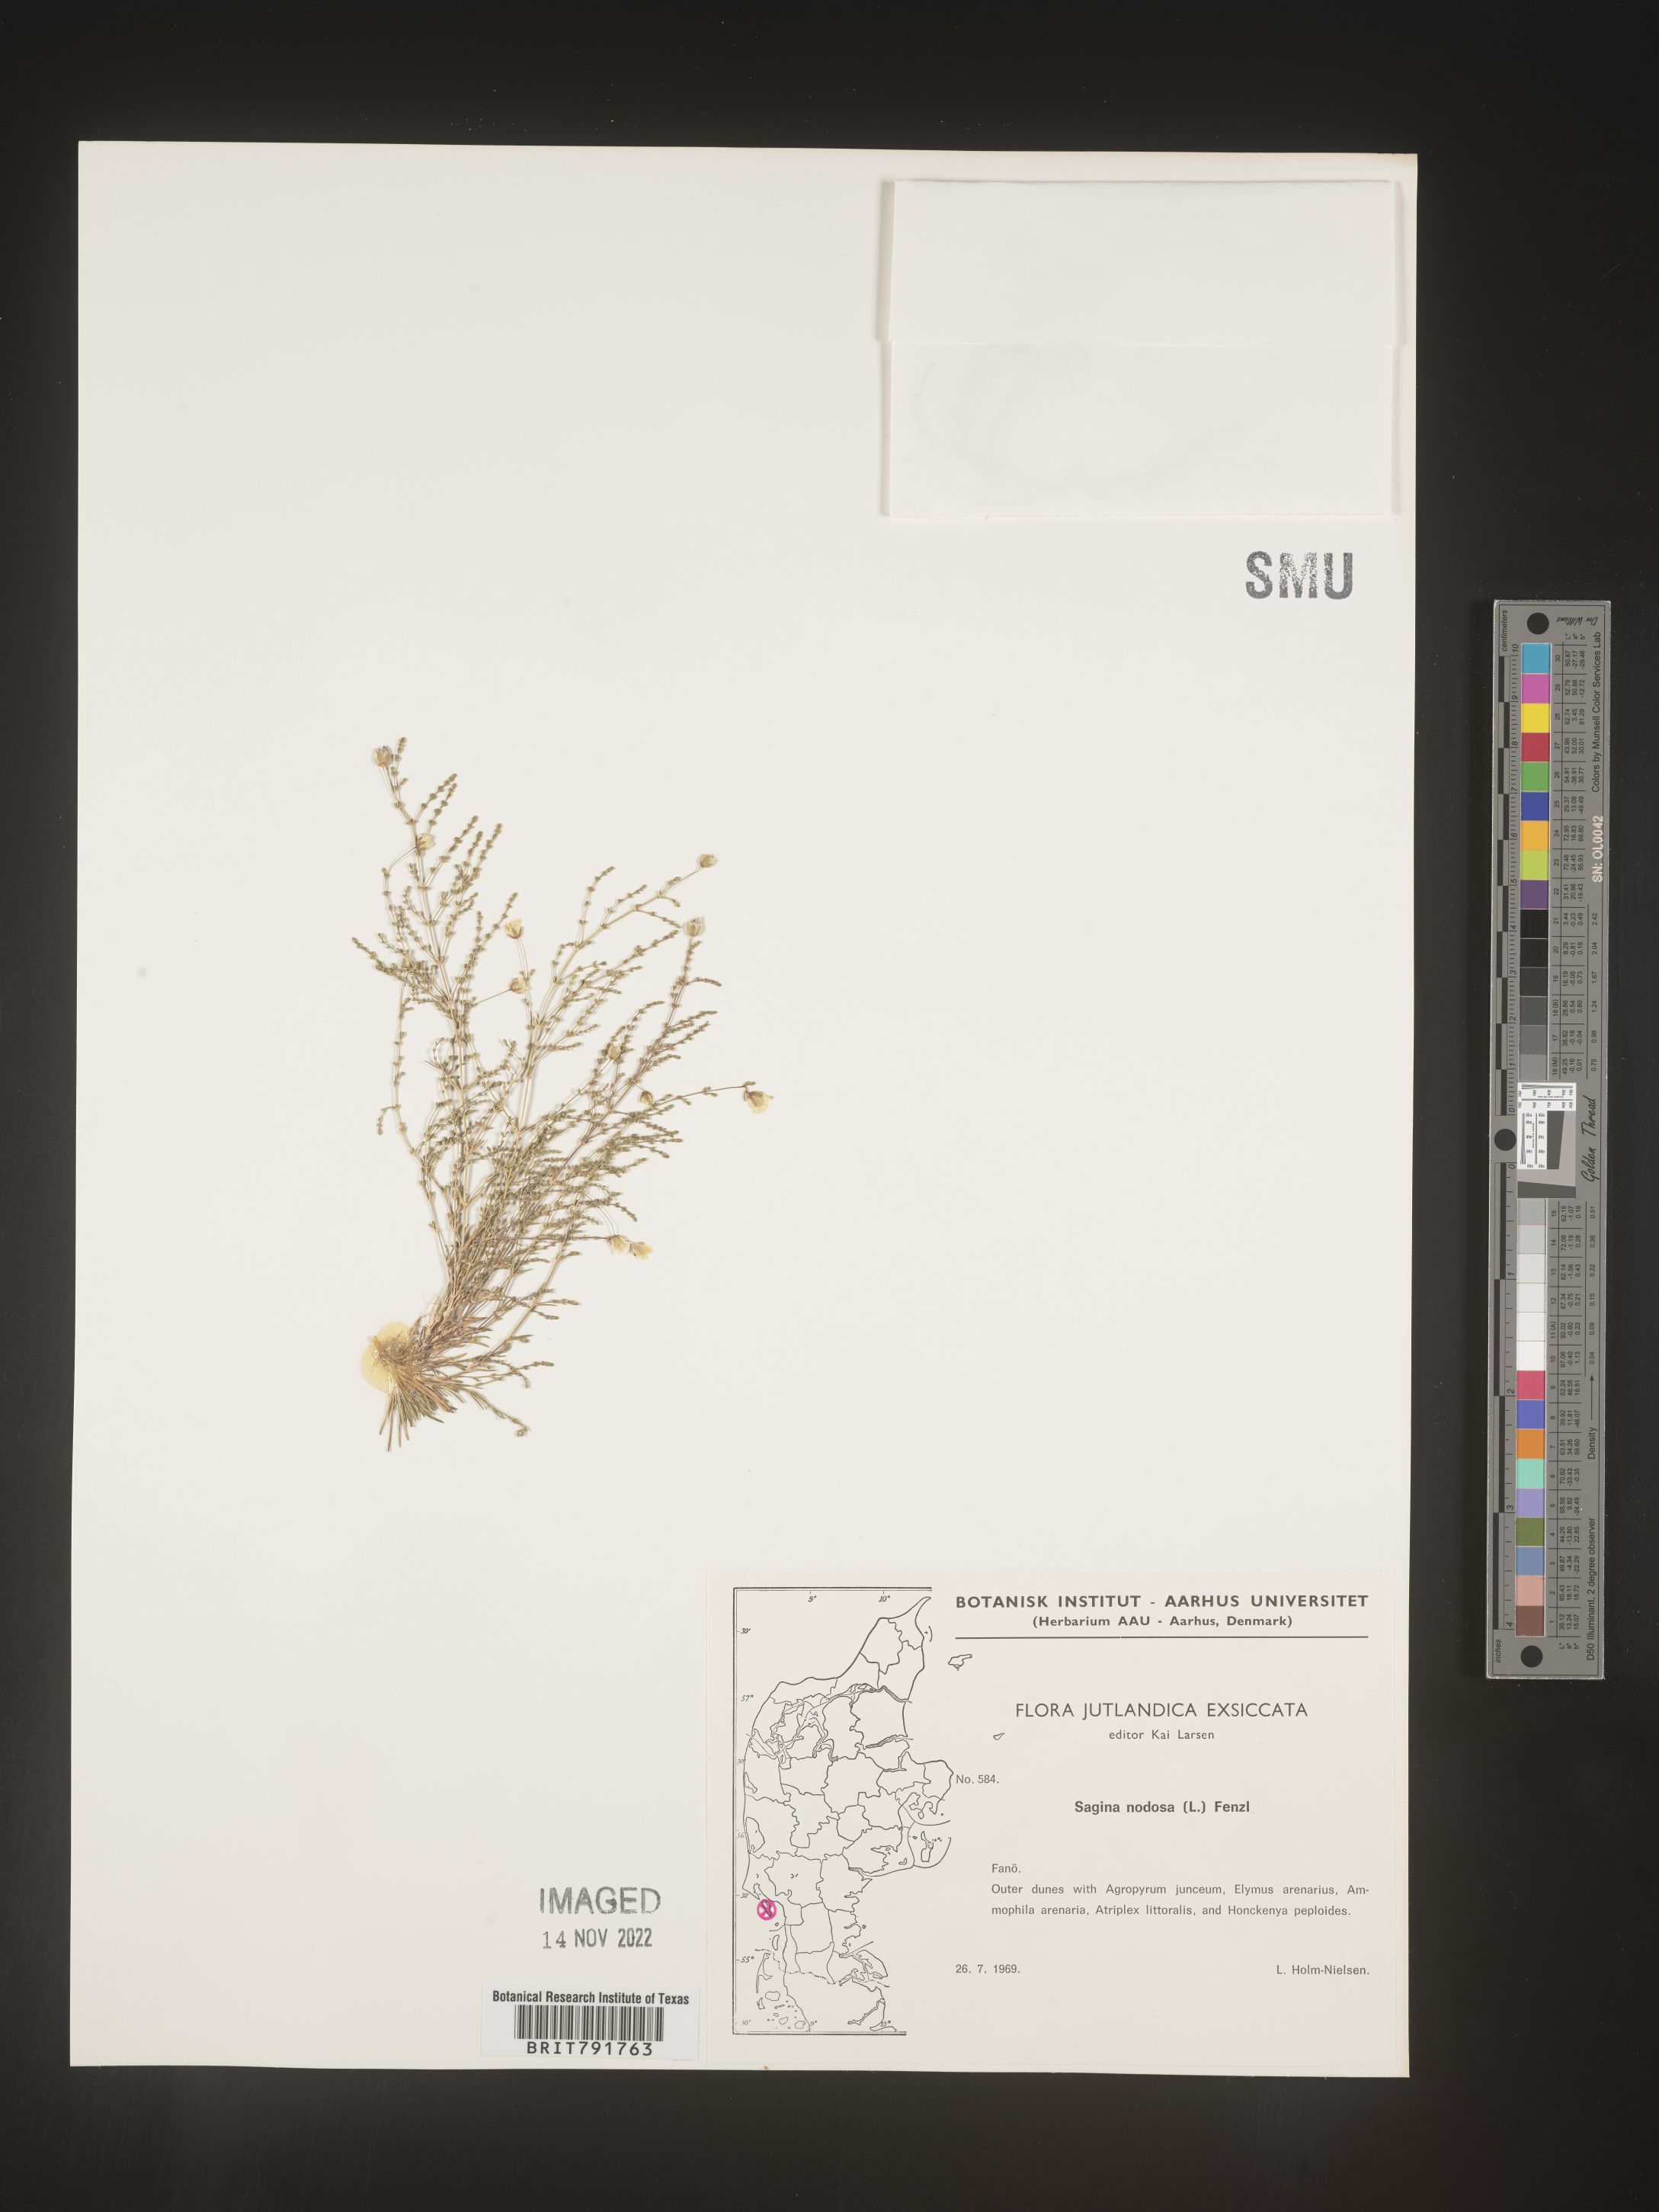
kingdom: Plantae
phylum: Tracheophyta
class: Magnoliopsida
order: Caryophyllales
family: Caryophyllaceae
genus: Sagina
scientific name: Sagina
